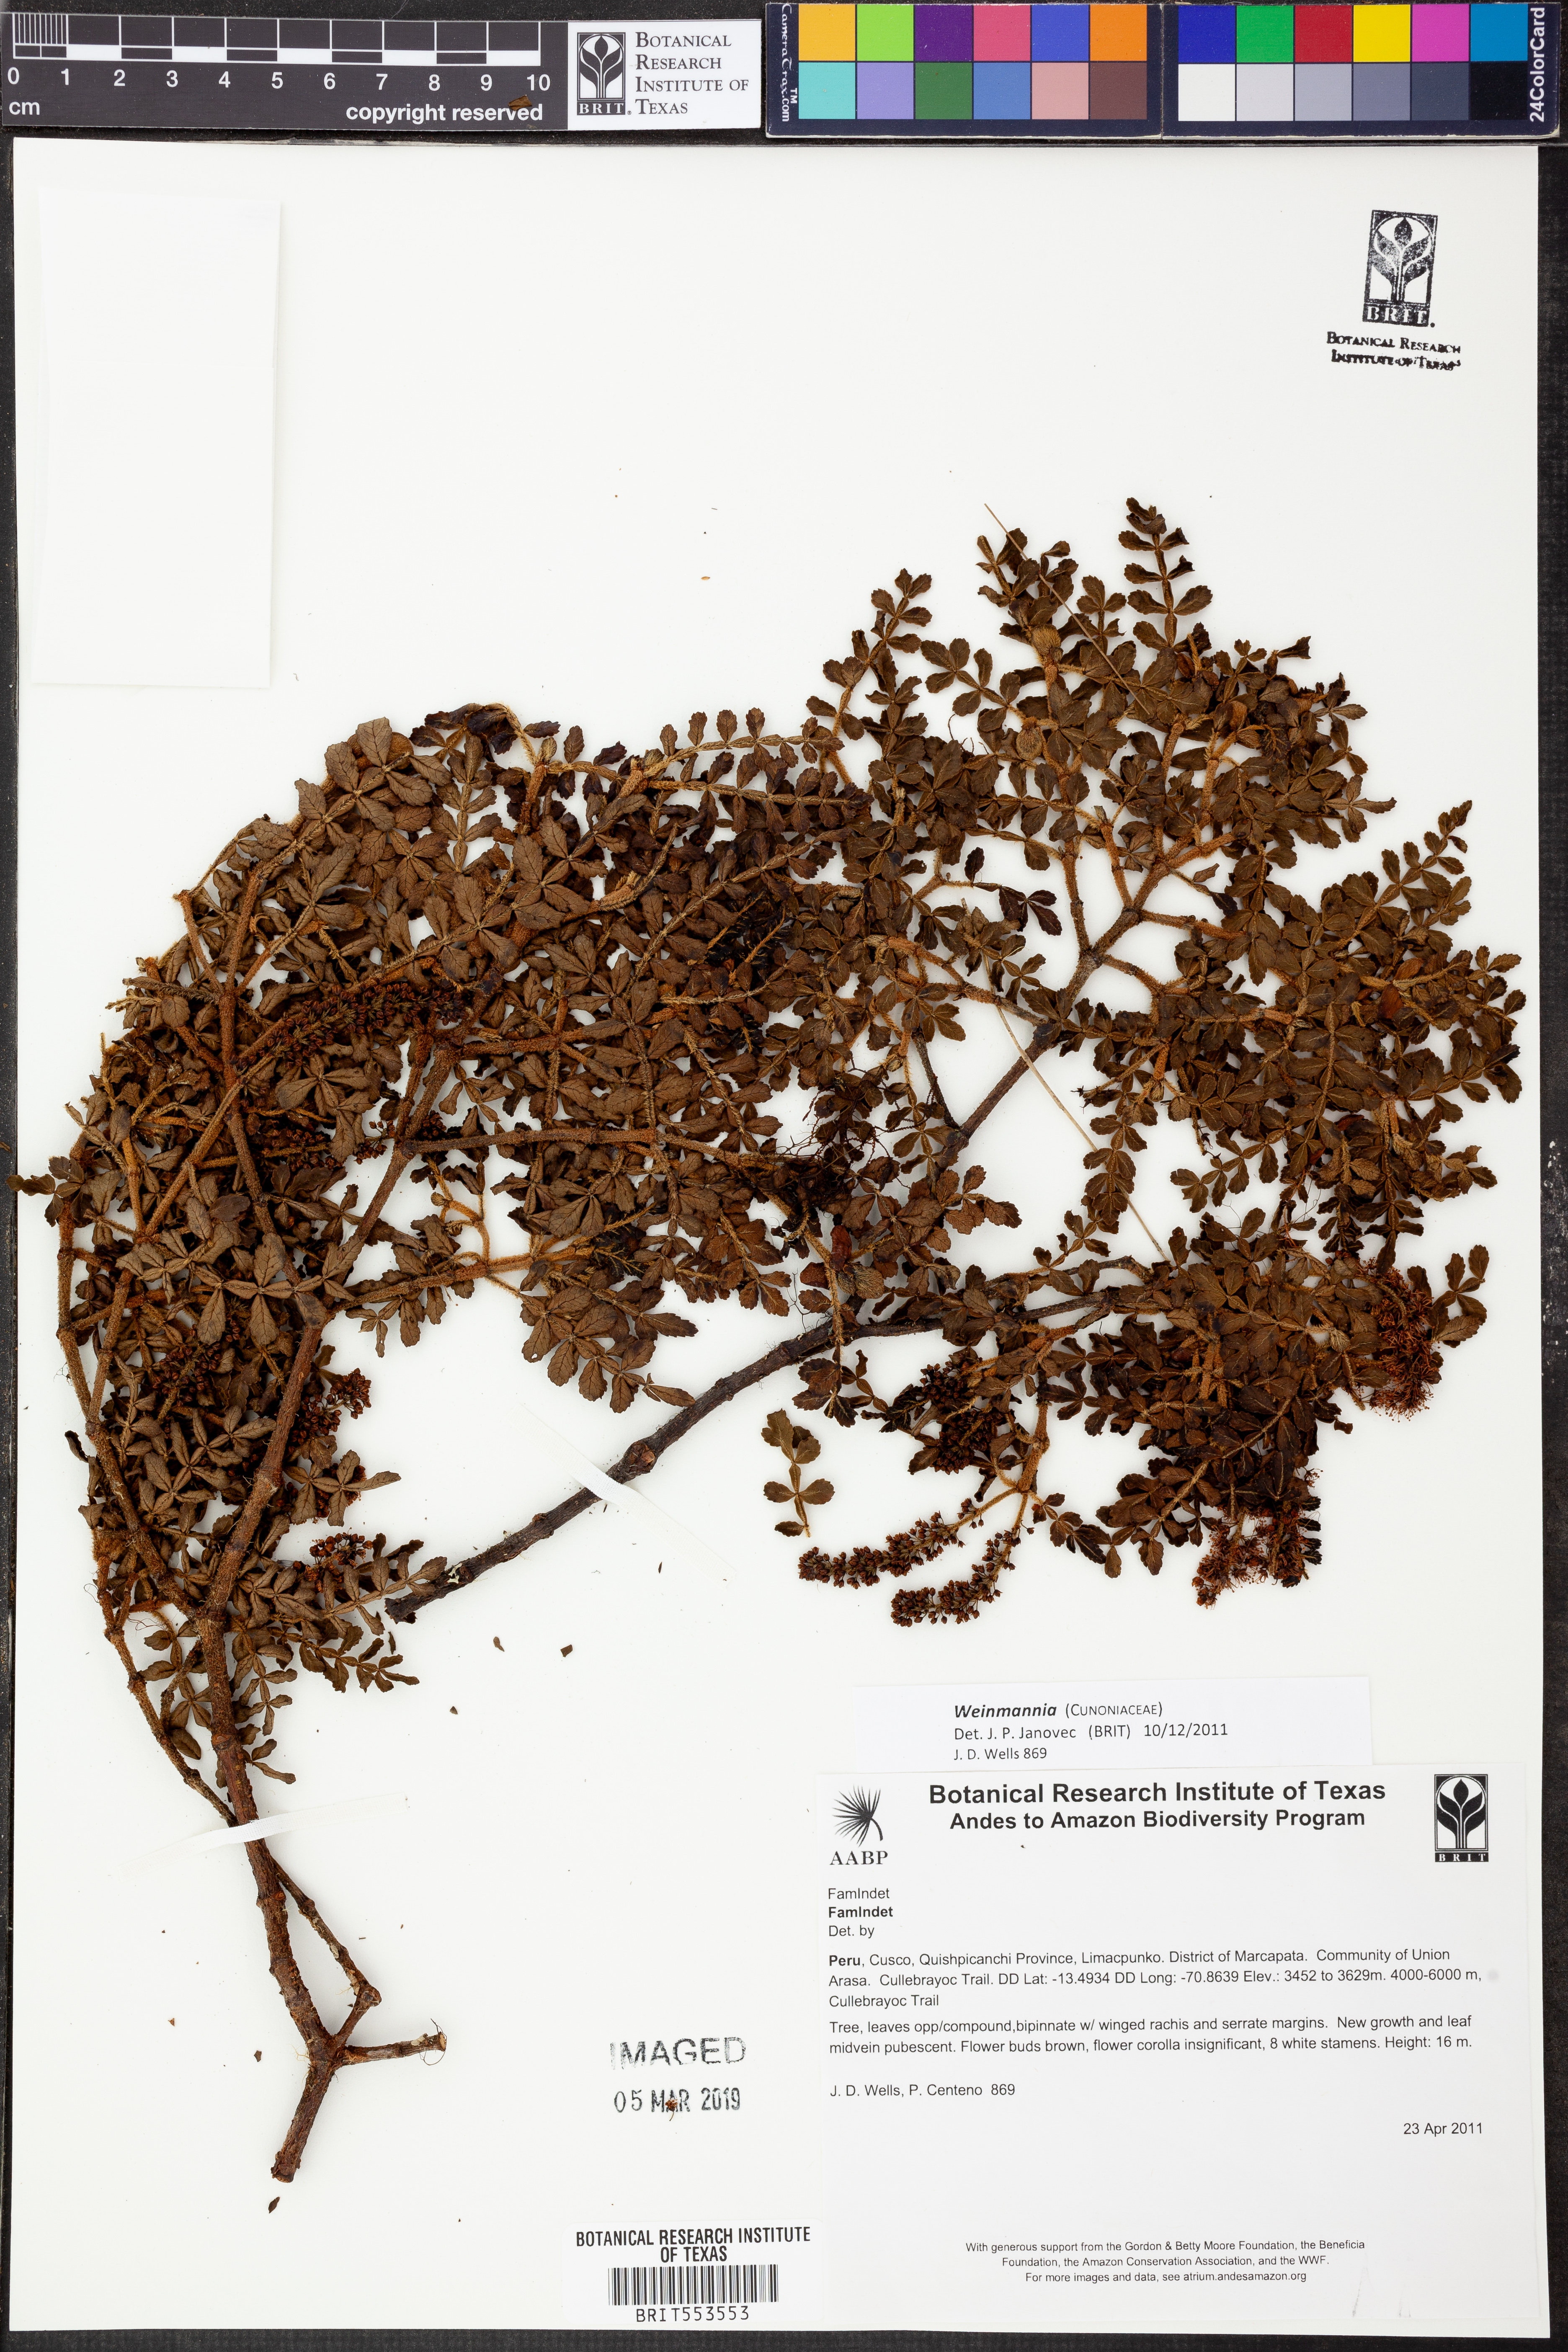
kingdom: Plantae
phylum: Tracheophyta
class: Magnoliopsida
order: Oxalidales
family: Cunoniaceae
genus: Weinmannia
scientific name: Weinmannia
